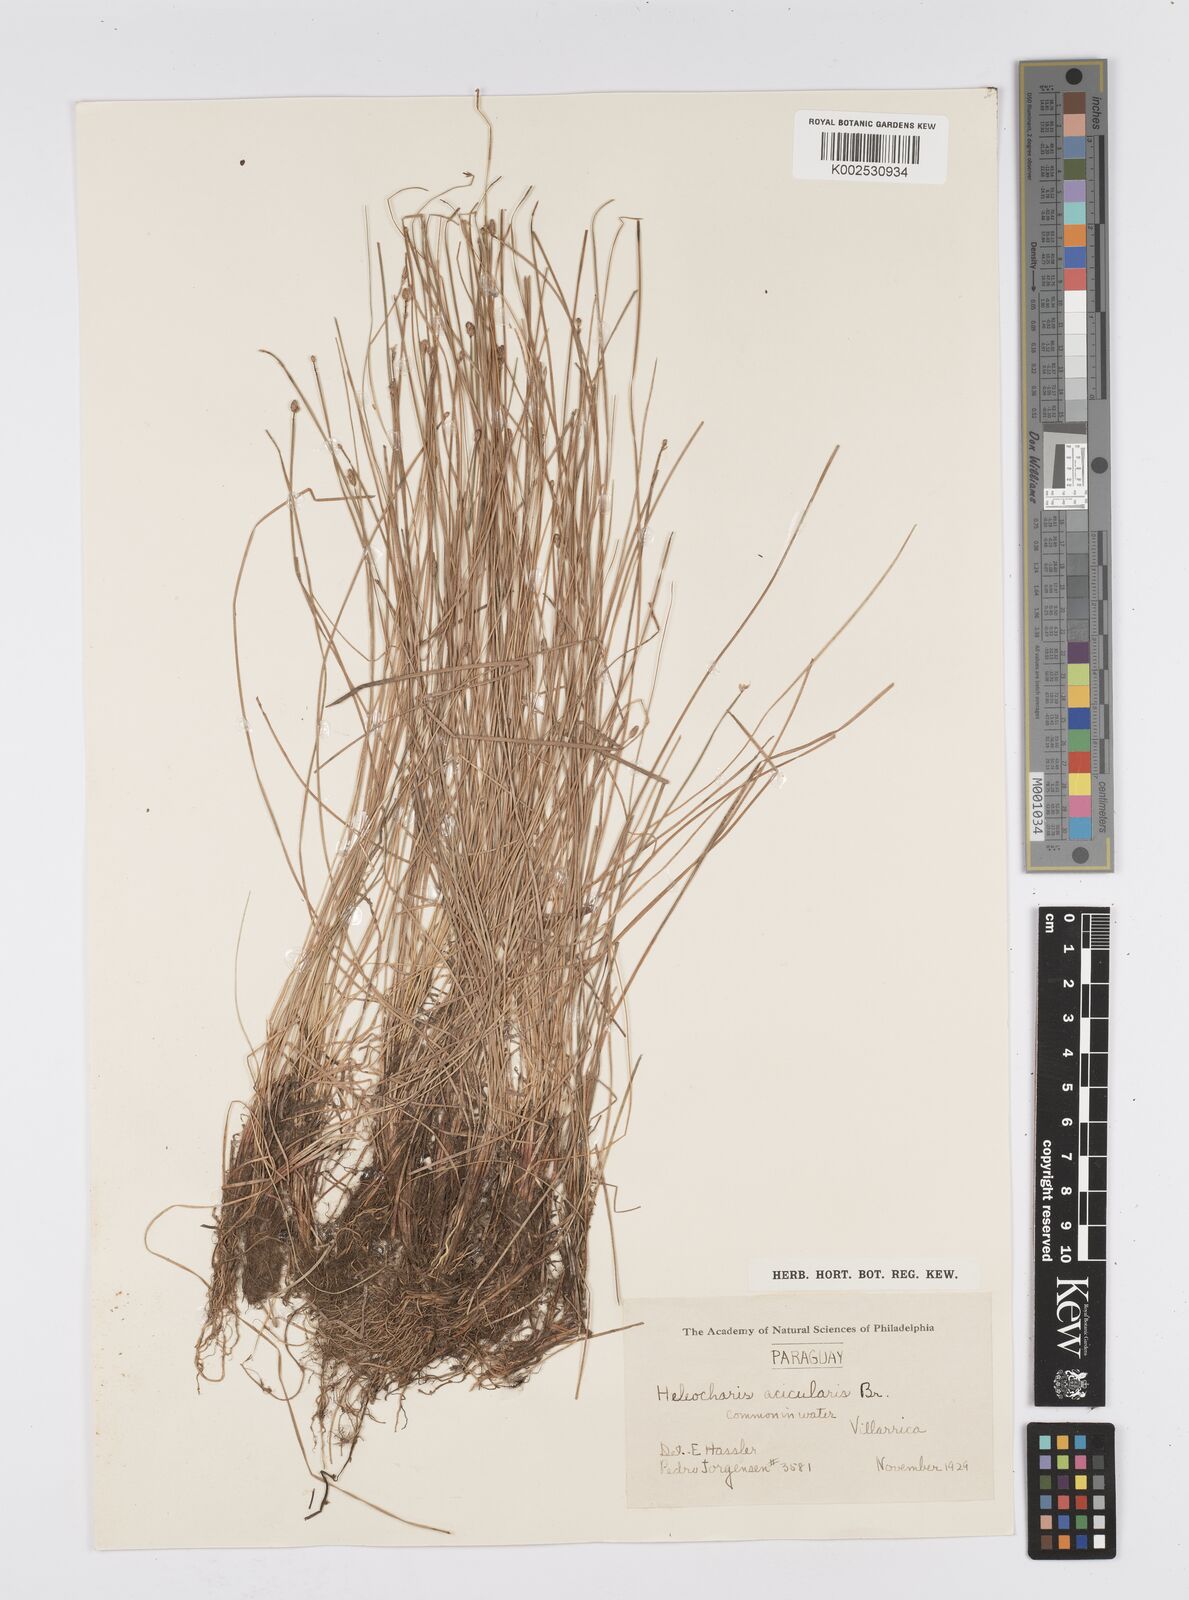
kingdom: Plantae
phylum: Tracheophyta
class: Liliopsida
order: Poales
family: Cyperaceae
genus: Eleocharis
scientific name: Eleocharis acicularis
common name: Needle spike-rush
